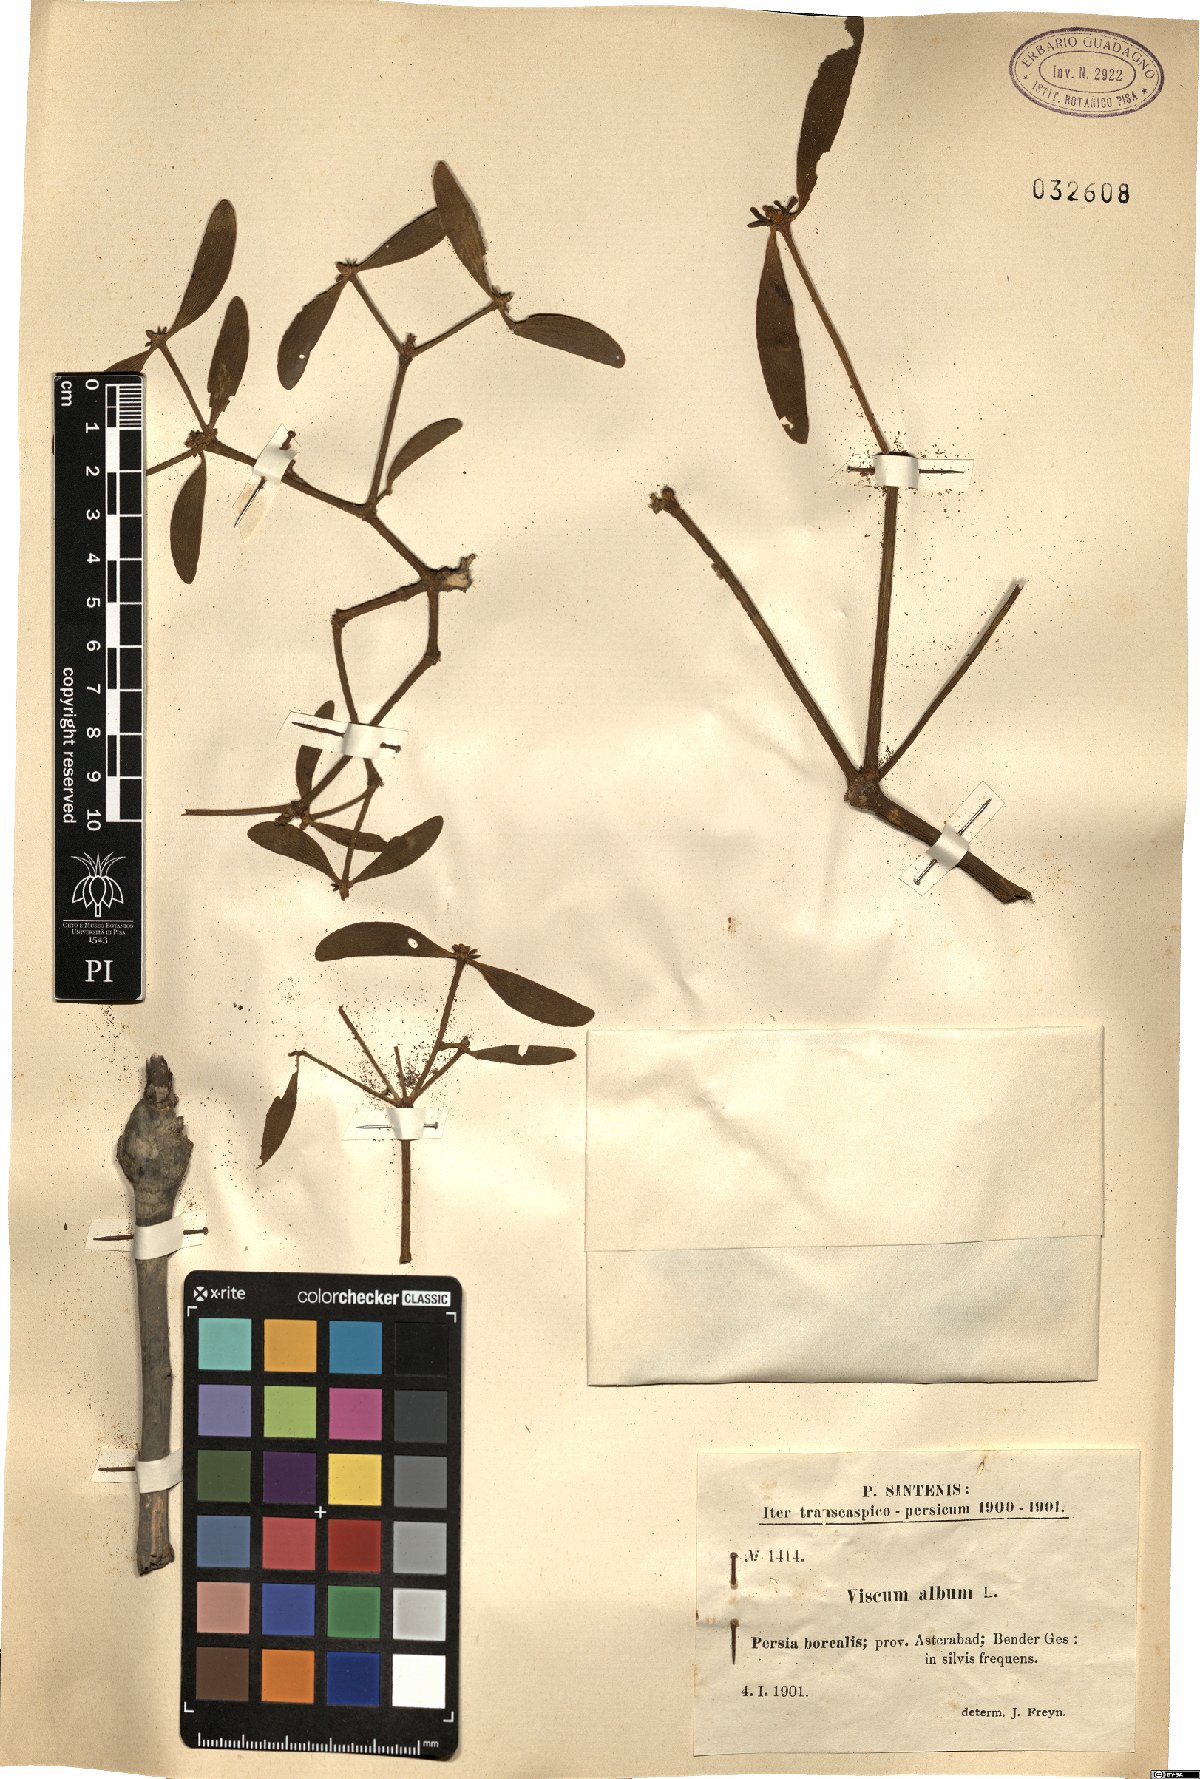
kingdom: Plantae
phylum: Tracheophyta
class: Magnoliopsida
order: Santalales
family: Viscaceae
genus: Viscum
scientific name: Viscum album
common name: Mistletoe
